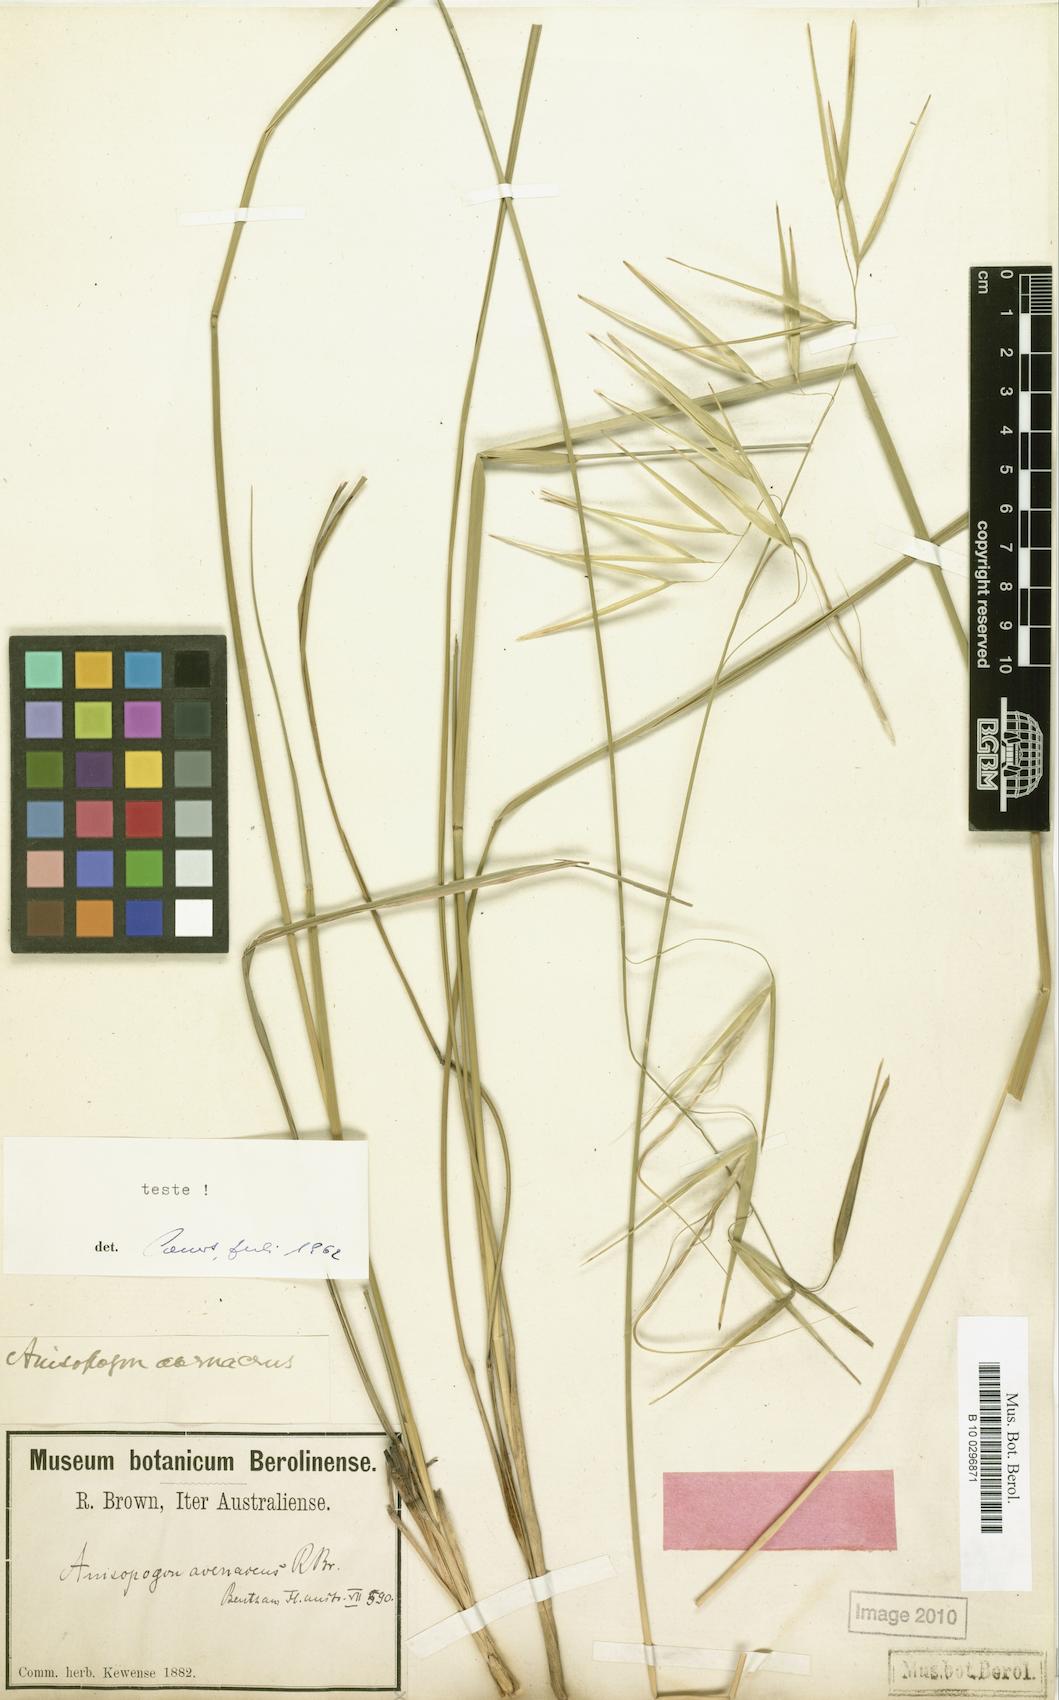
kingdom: Plantae
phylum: Tracheophyta
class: Liliopsida
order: Poales
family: Poaceae
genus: Anisopogon
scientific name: Anisopogon avenaceus
